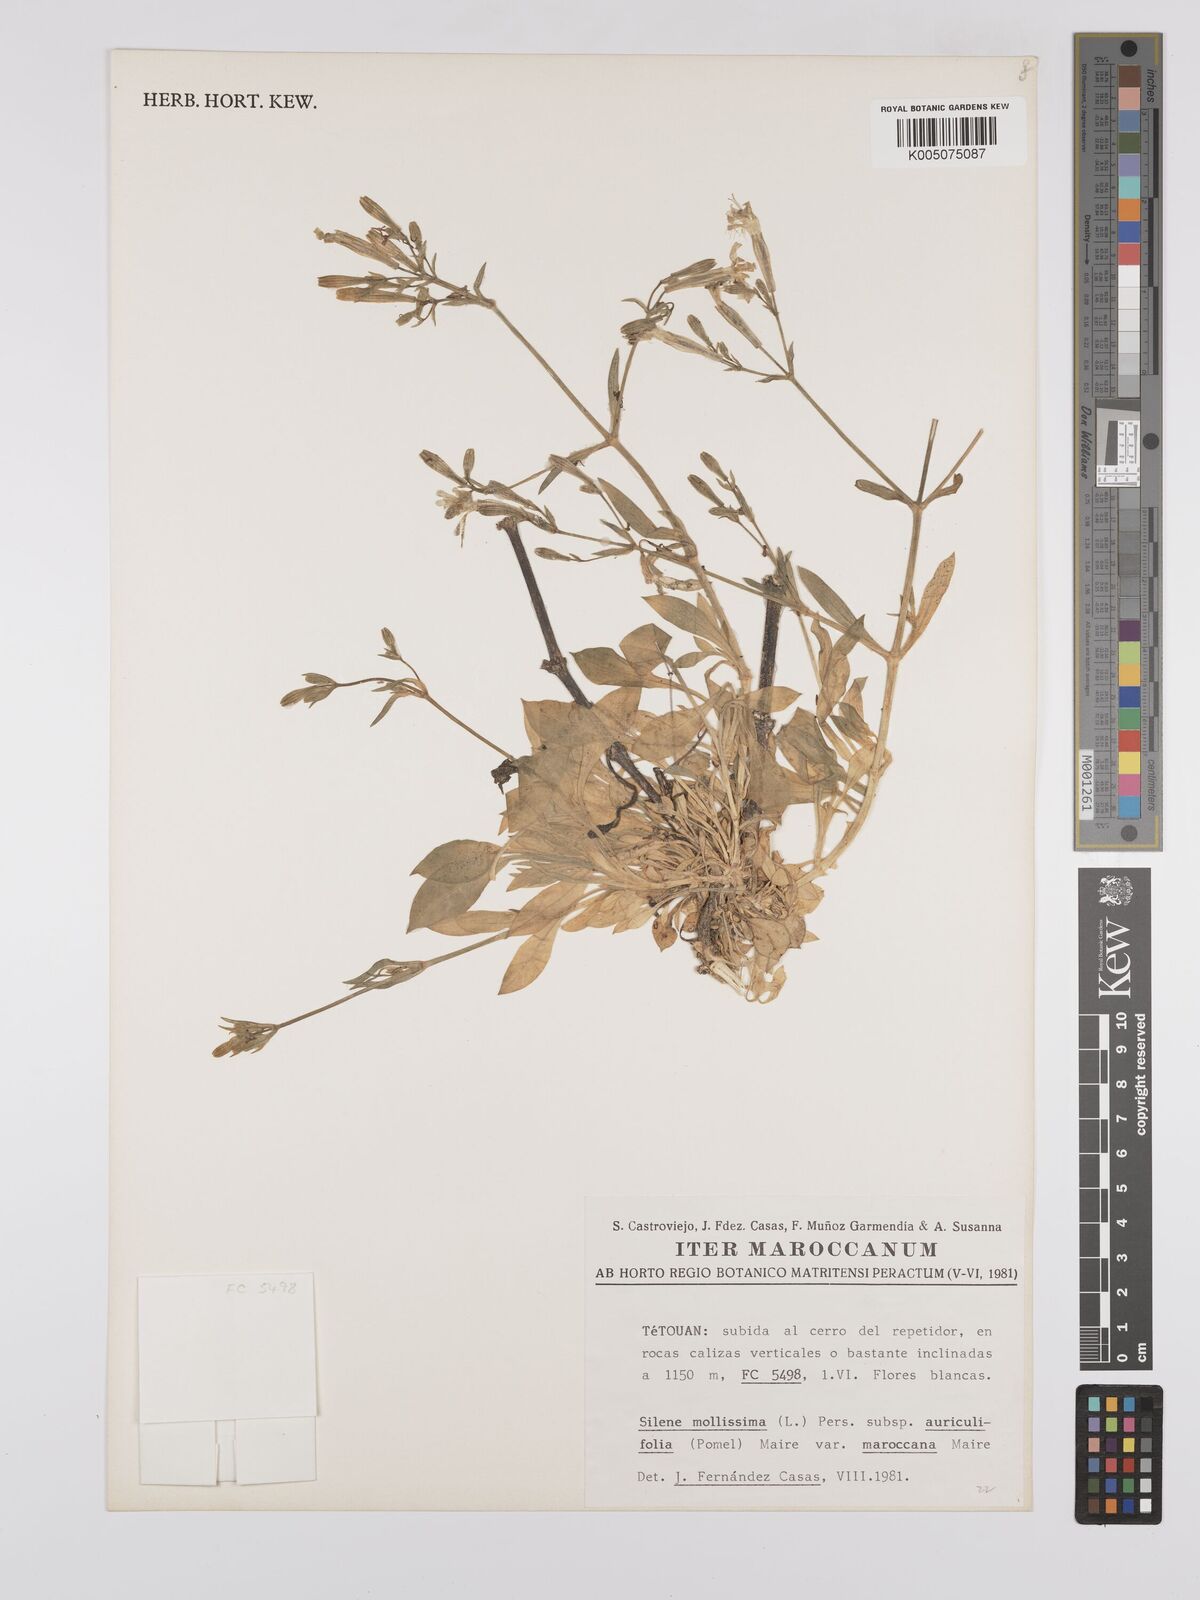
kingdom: Plantae
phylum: Tracheophyta
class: Magnoliopsida
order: Caryophyllales
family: Caryophyllaceae
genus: Silene
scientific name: Silene mollissima
